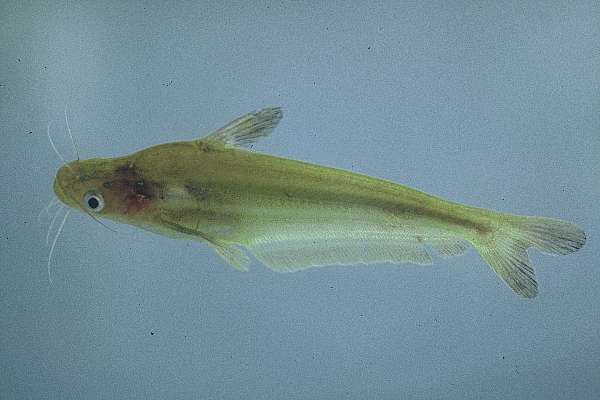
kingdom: Animalia
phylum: Chordata
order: Siluriformes
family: Schilbeidae
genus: Schilbe
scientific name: Schilbe intermedius
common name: Silver catfish
